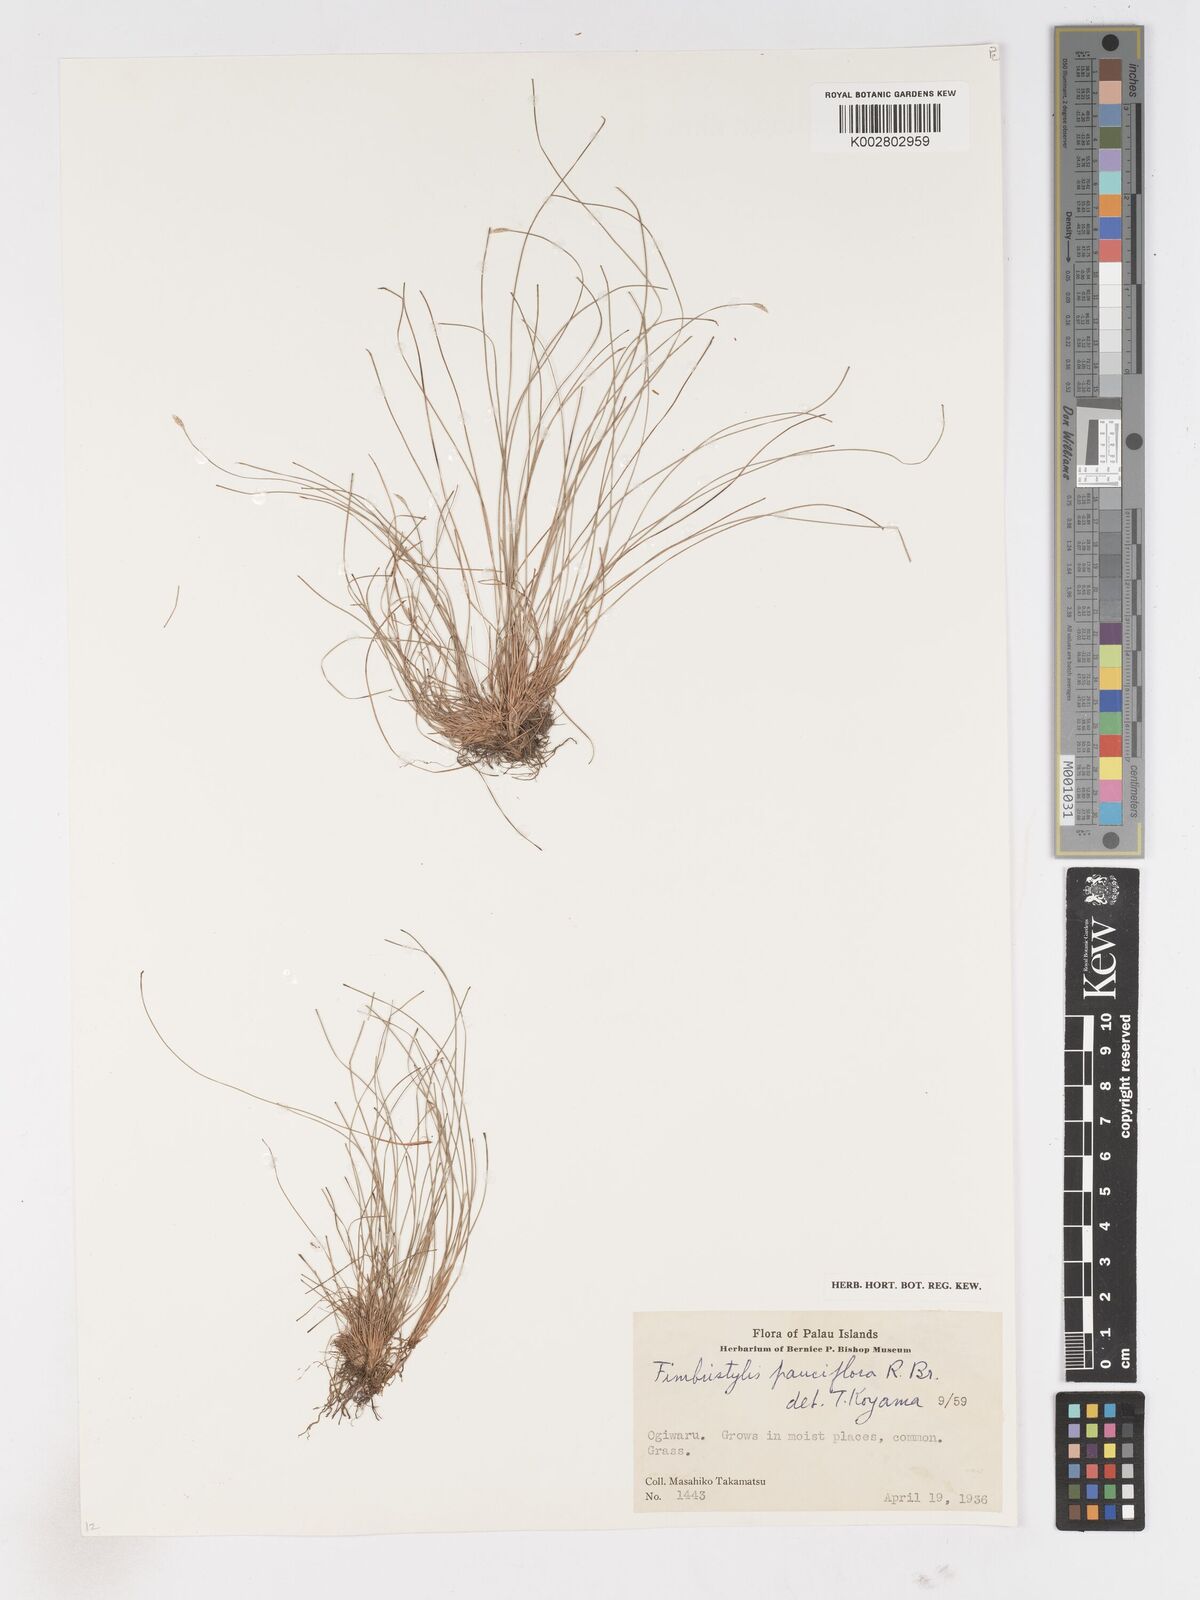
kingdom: Plantae
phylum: Tracheophyta
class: Liliopsida
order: Poales
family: Cyperaceae
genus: Fimbristylis
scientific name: Fimbristylis pauciflora
